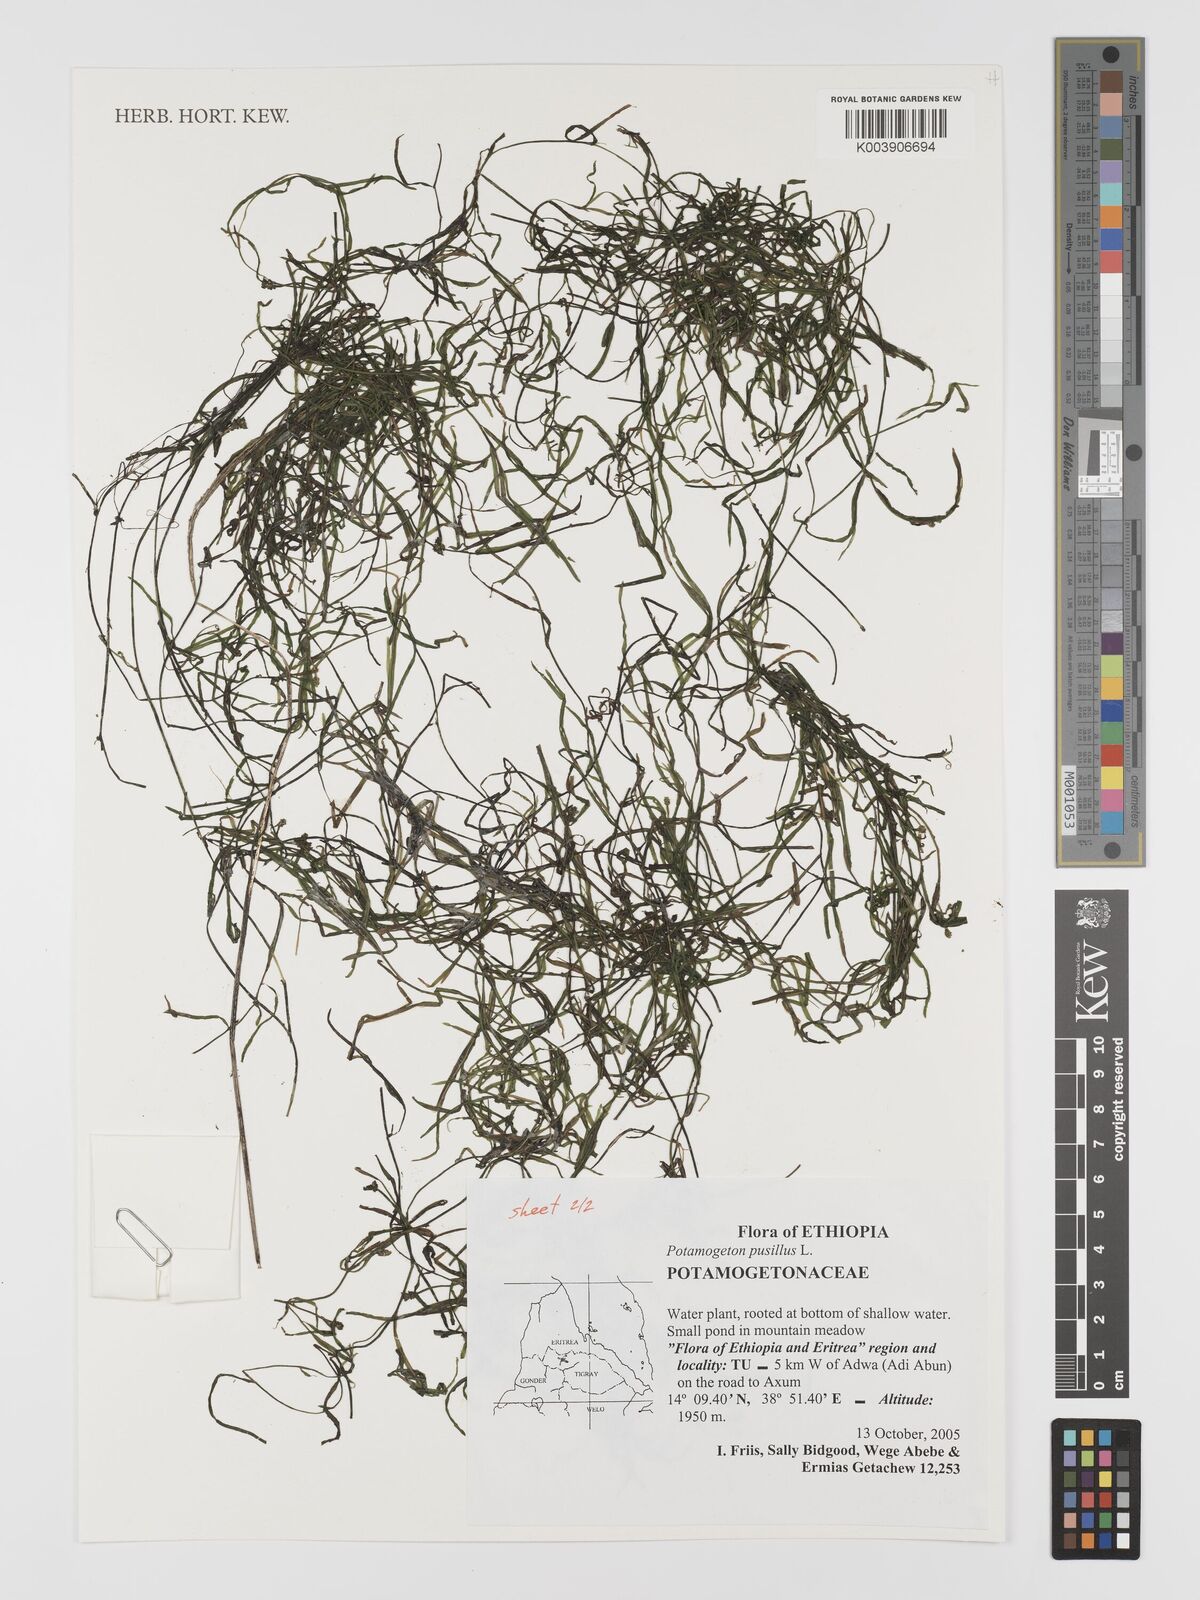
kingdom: Plantae
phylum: Tracheophyta
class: Liliopsida
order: Alismatales
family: Potamogetonaceae
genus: Potamogeton
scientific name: Potamogeton pusillus
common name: Lesser pondweed
